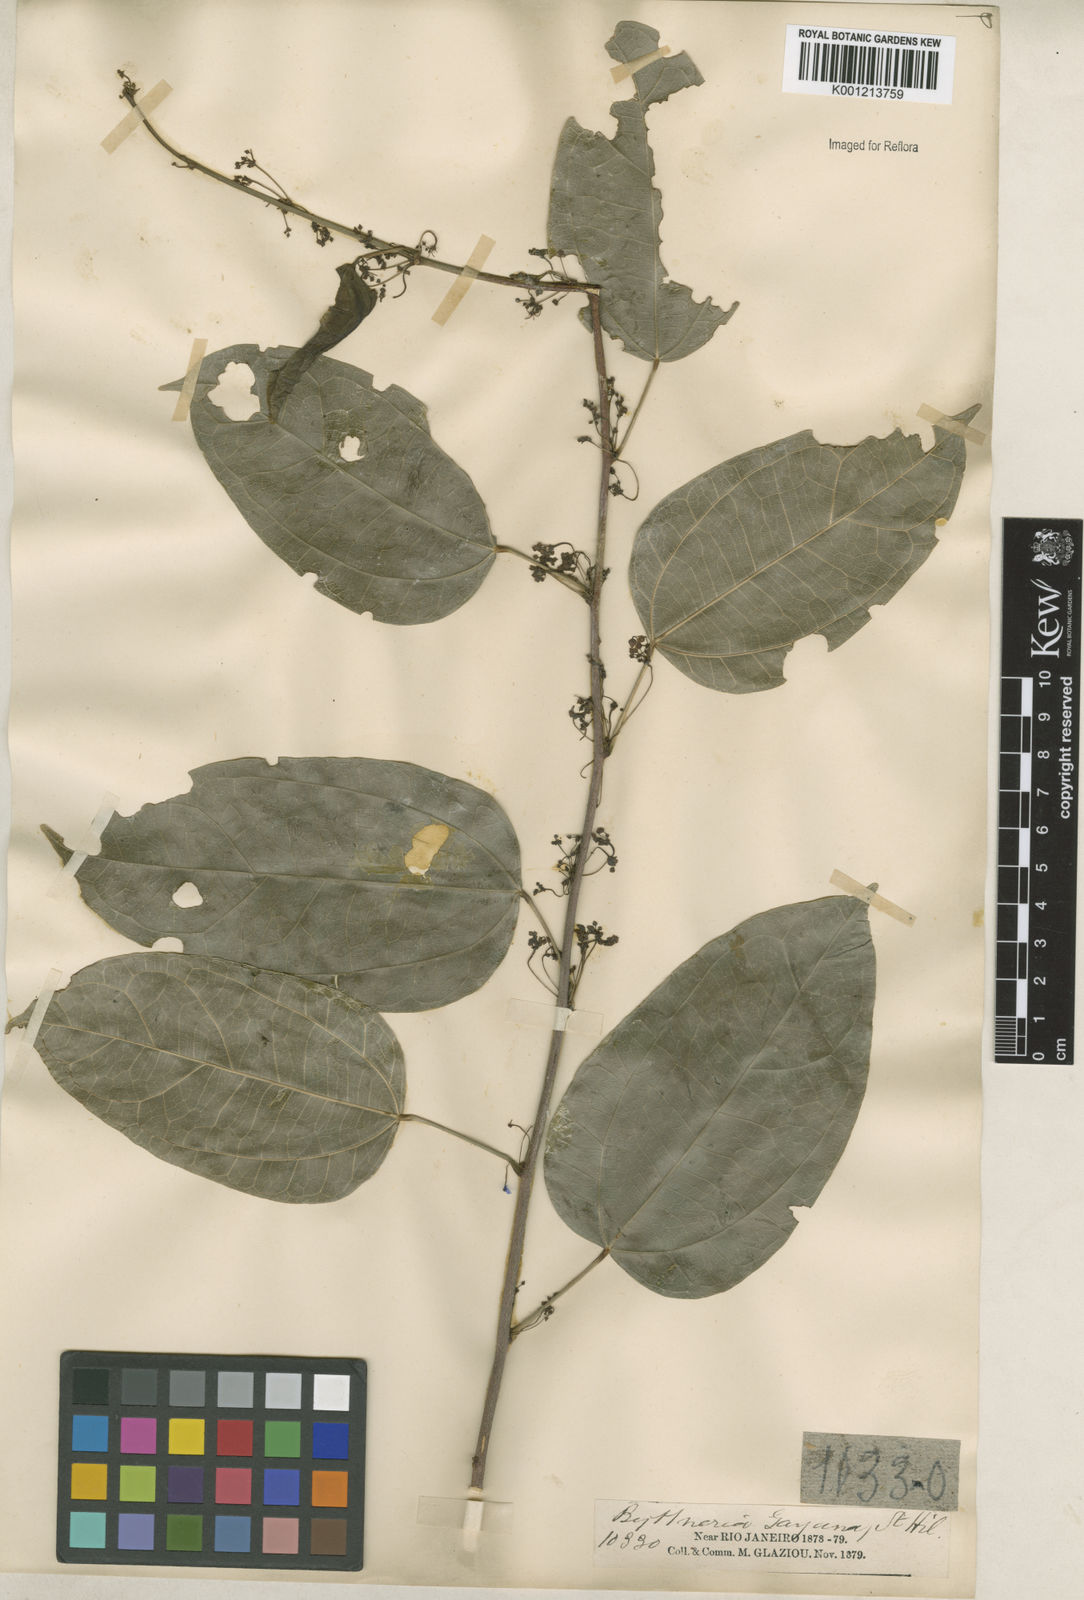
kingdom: Plantae
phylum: Tracheophyta
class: Magnoliopsida
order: Malvales
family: Malvaceae
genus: Byttneria
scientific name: Byttneria gayana
